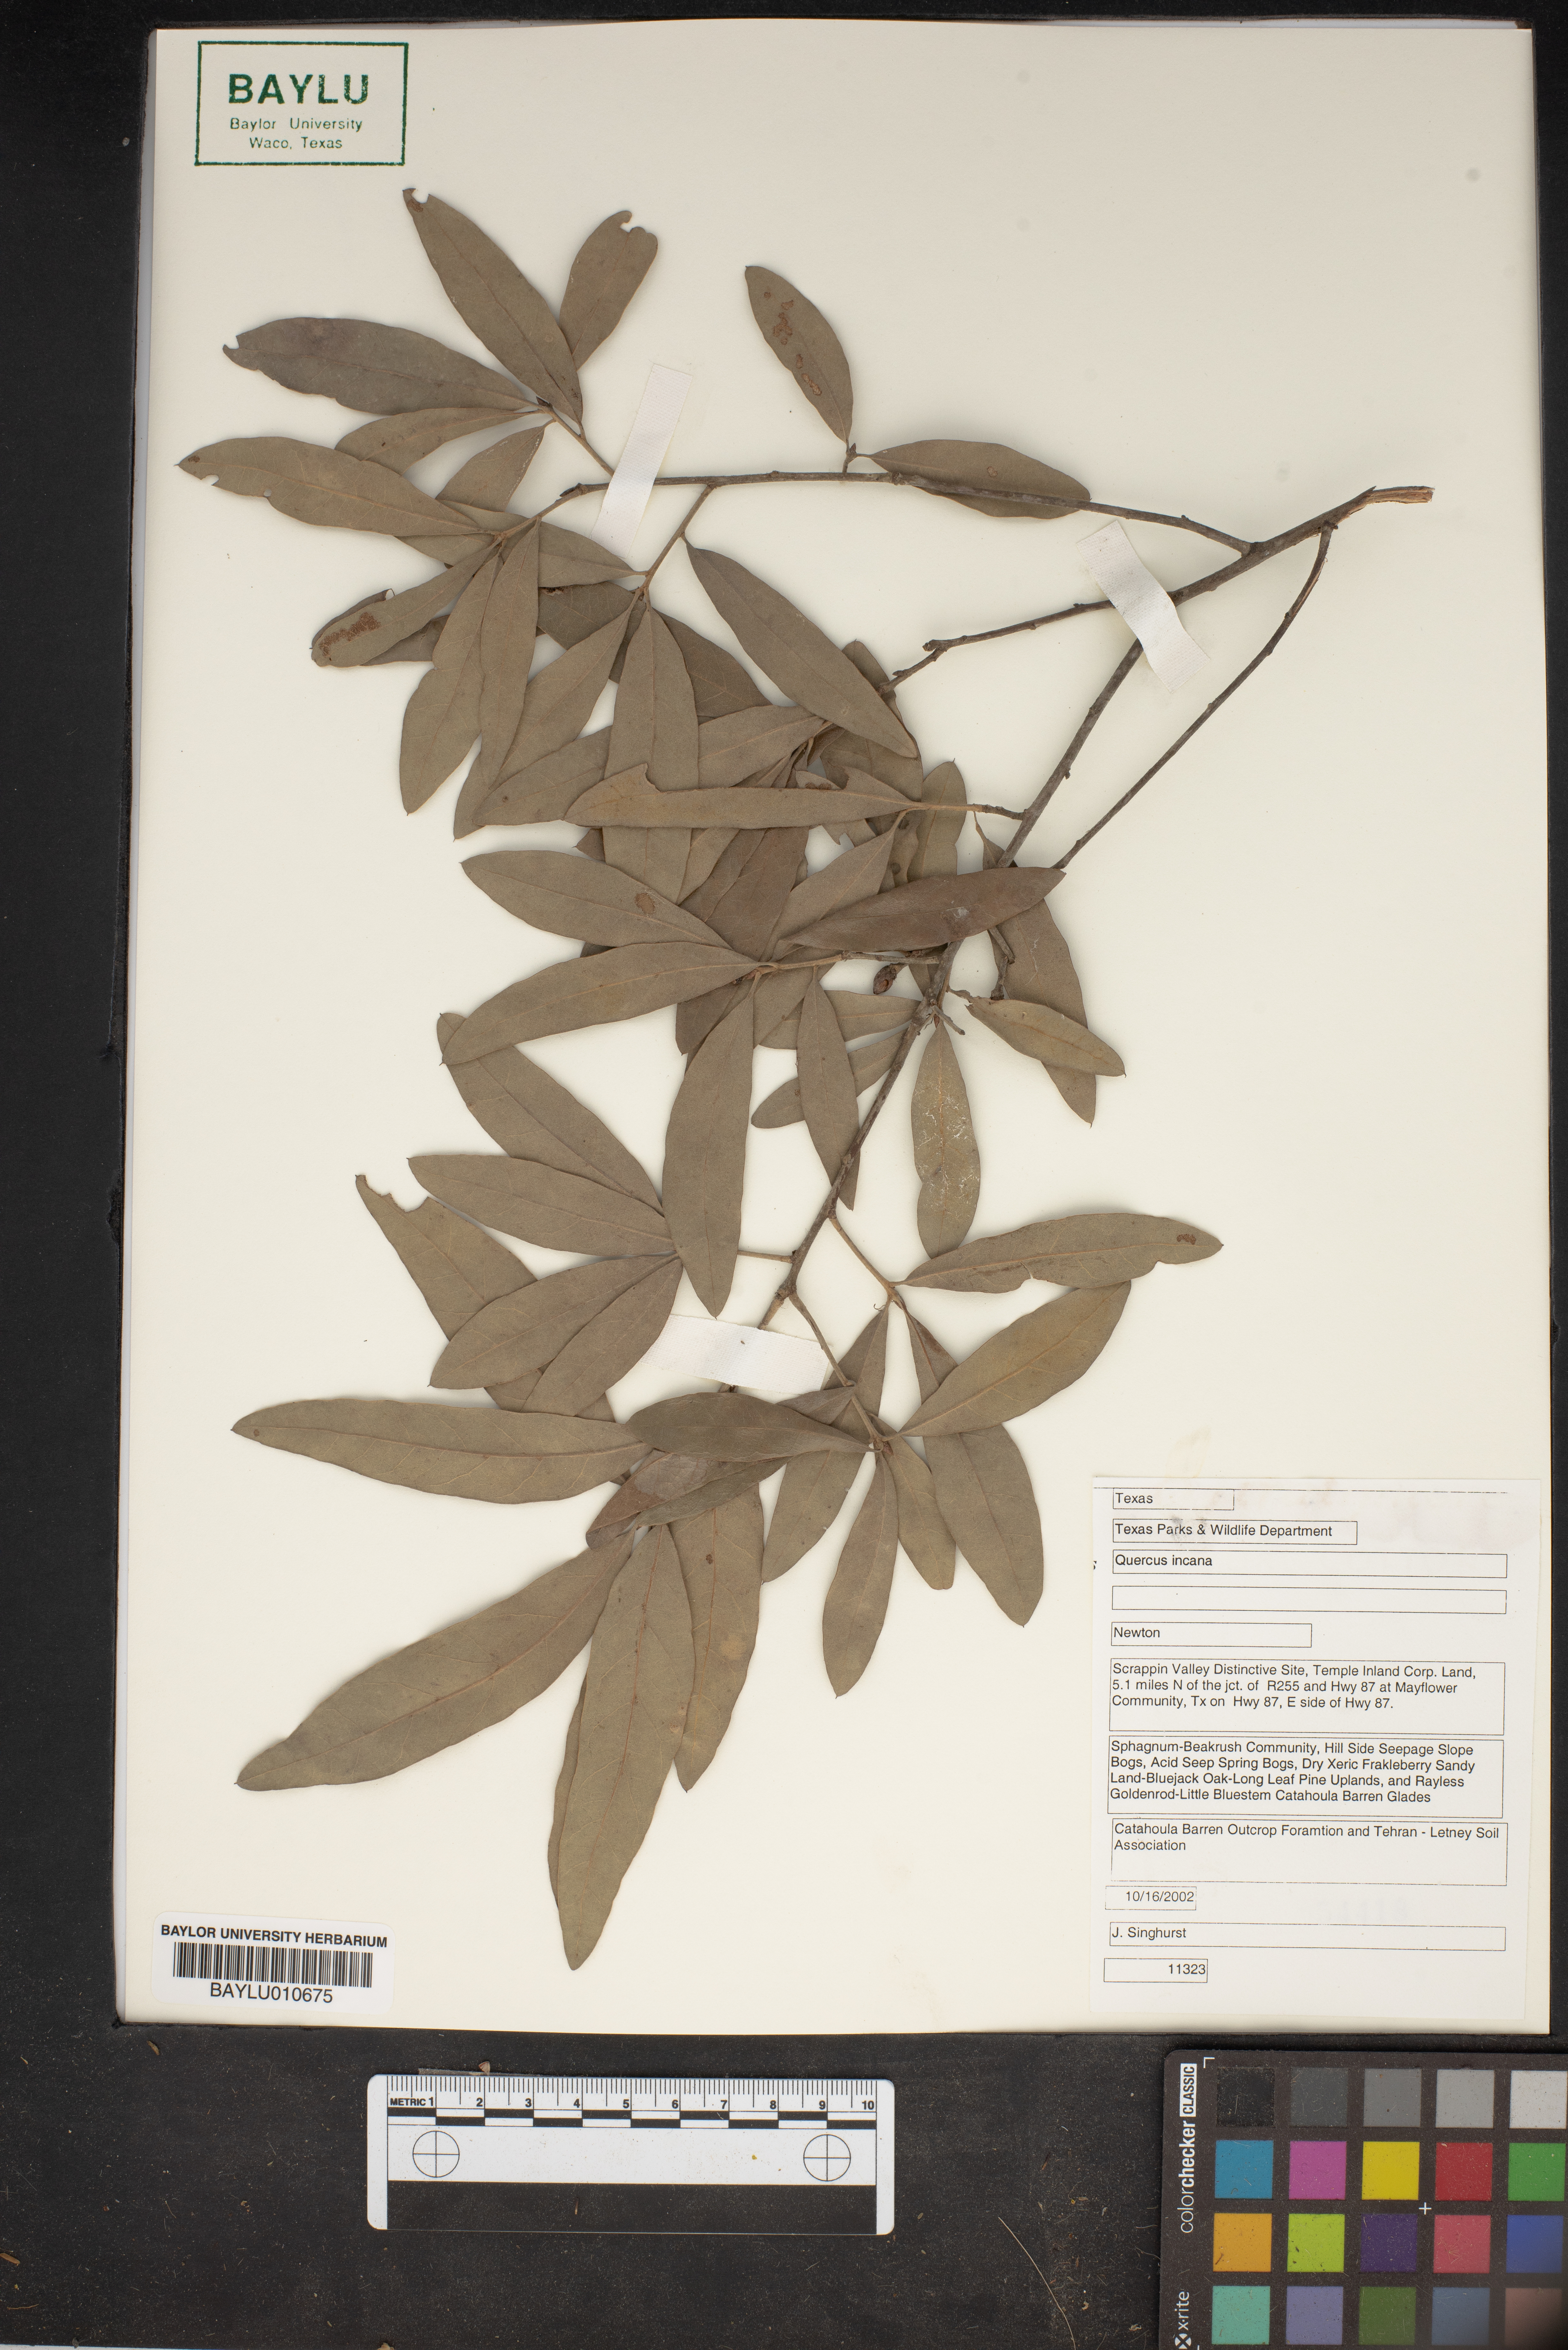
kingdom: Plantae
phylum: Tracheophyta
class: Magnoliopsida
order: Fagales
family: Fagaceae
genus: Quercus
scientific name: Quercus incana
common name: Bluejack oak
